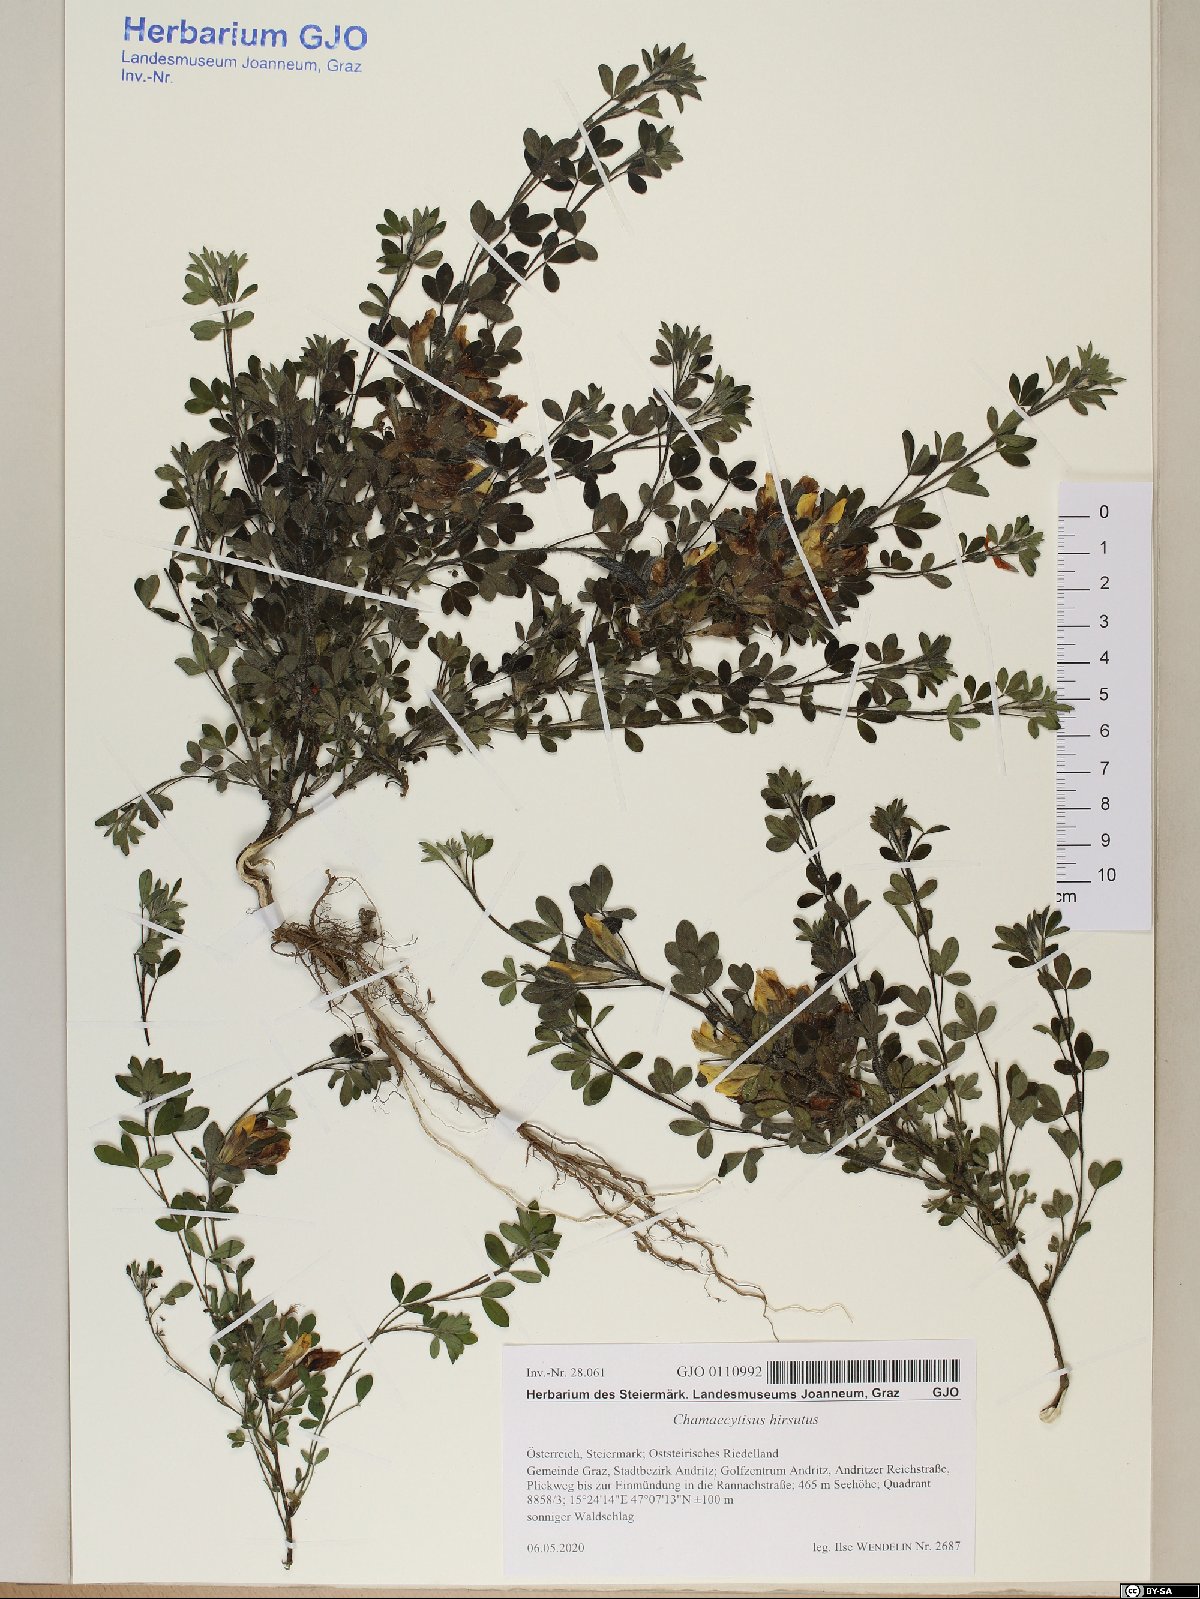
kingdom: Plantae
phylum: Tracheophyta
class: Magnoliopsida
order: Fabales
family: Fabaceae
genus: Chamaecytisus
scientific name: Chamaecytisus hirsutus
